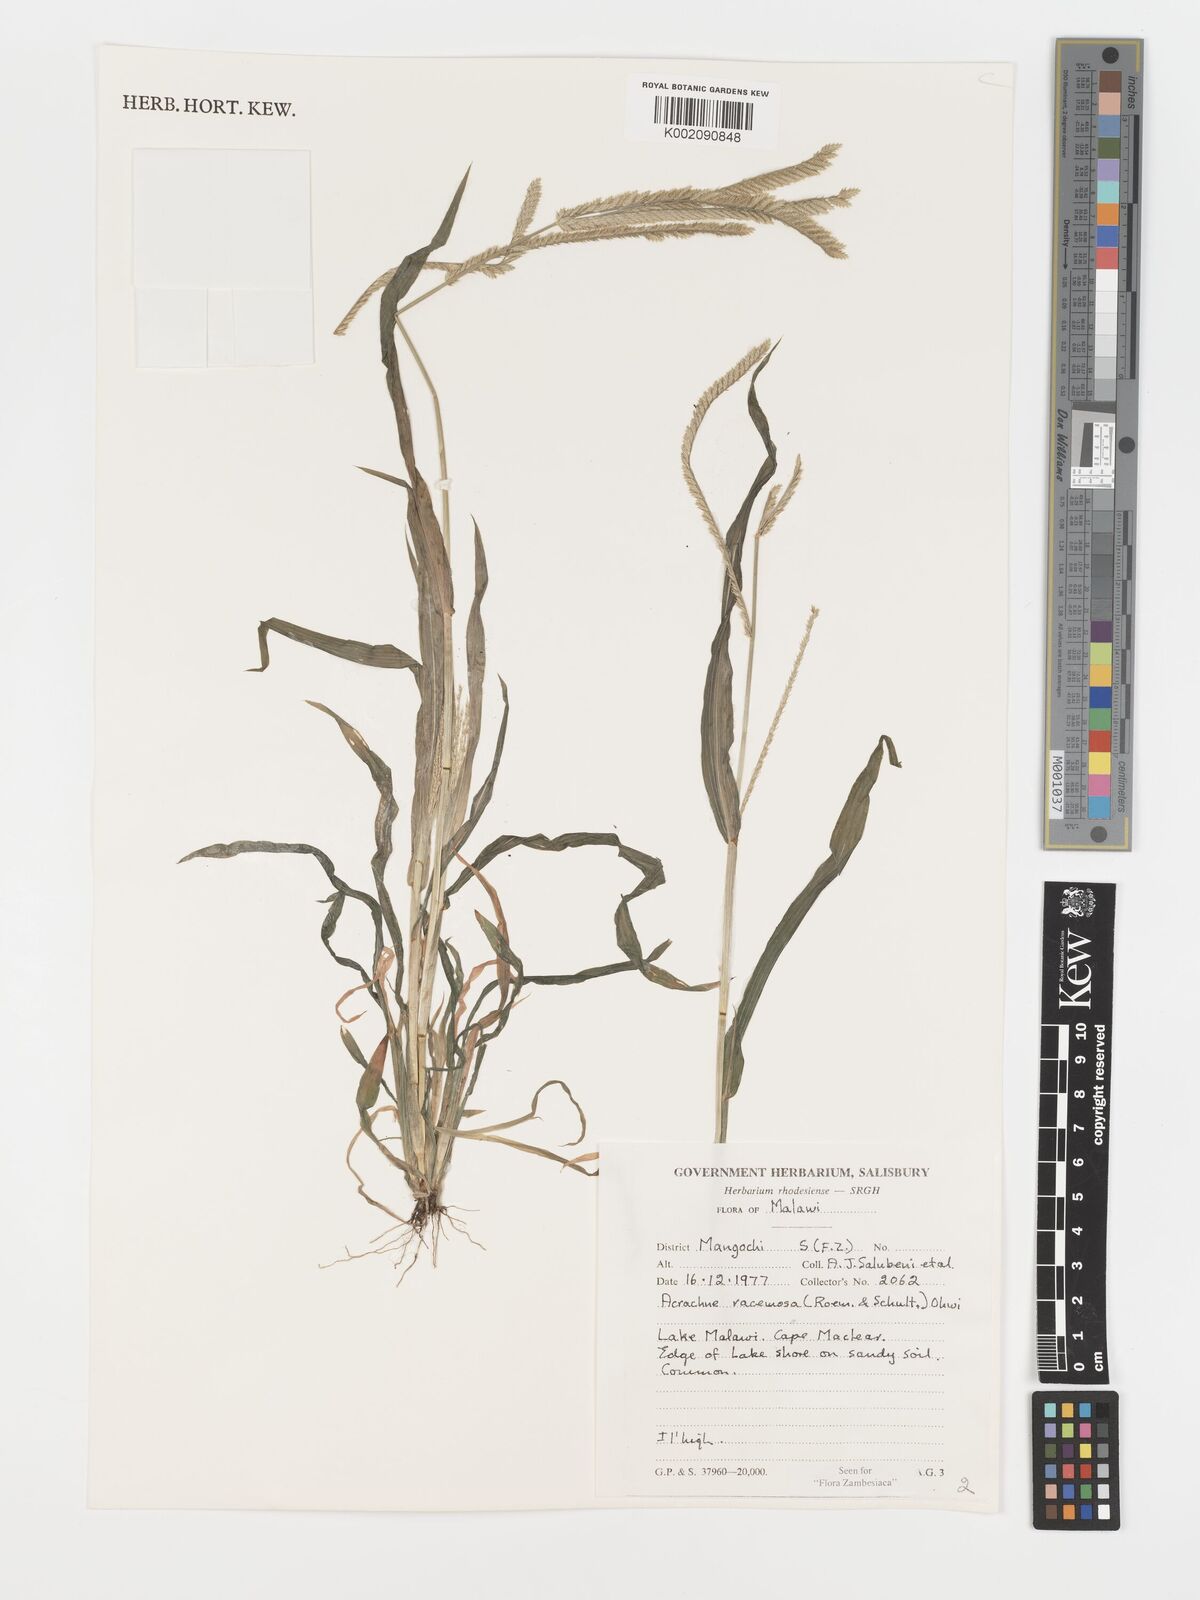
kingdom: Plantae
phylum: Tracheophyta
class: Liliopsida
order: Poales
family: Poaceae
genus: Acrachne
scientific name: Acrachne racemosa
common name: Goosegrass
